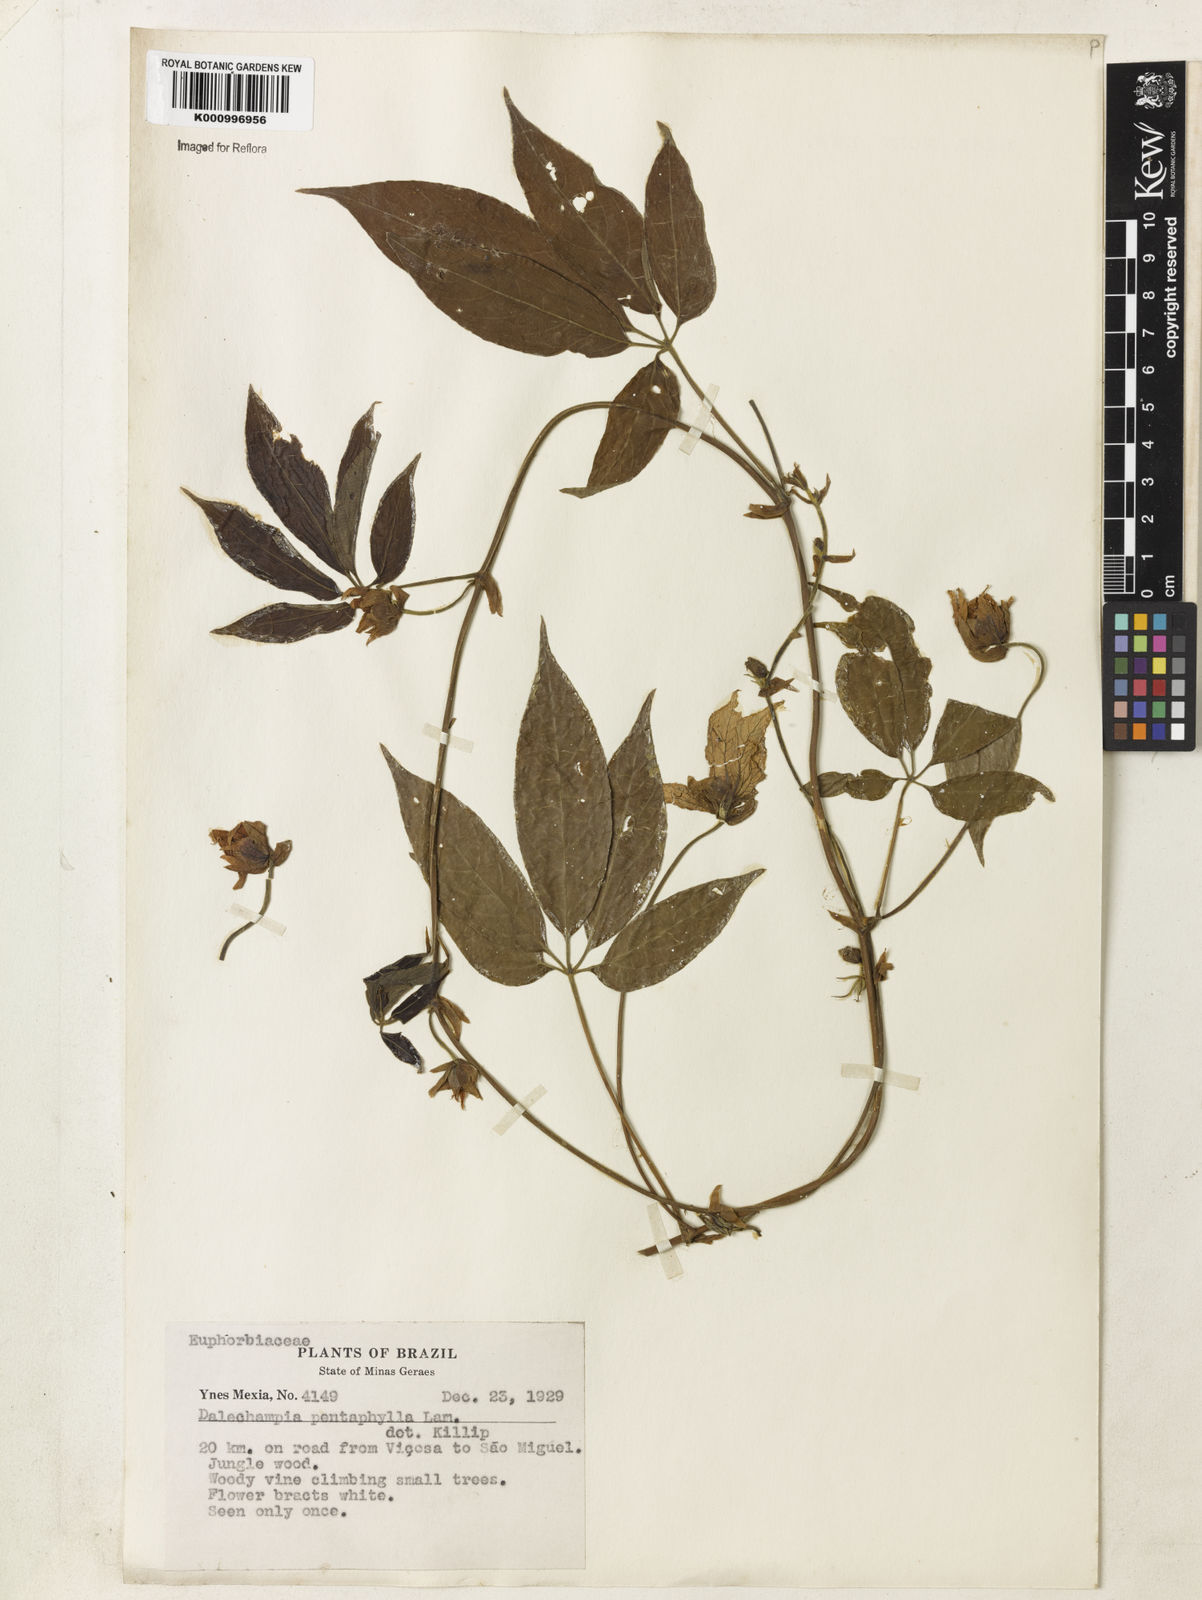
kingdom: Plantae
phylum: Tracheophyta
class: Magnoliopsida
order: Malpighiales
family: Euphorbiaceae
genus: Dalechampia
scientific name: Dalechampia pentaphylla
